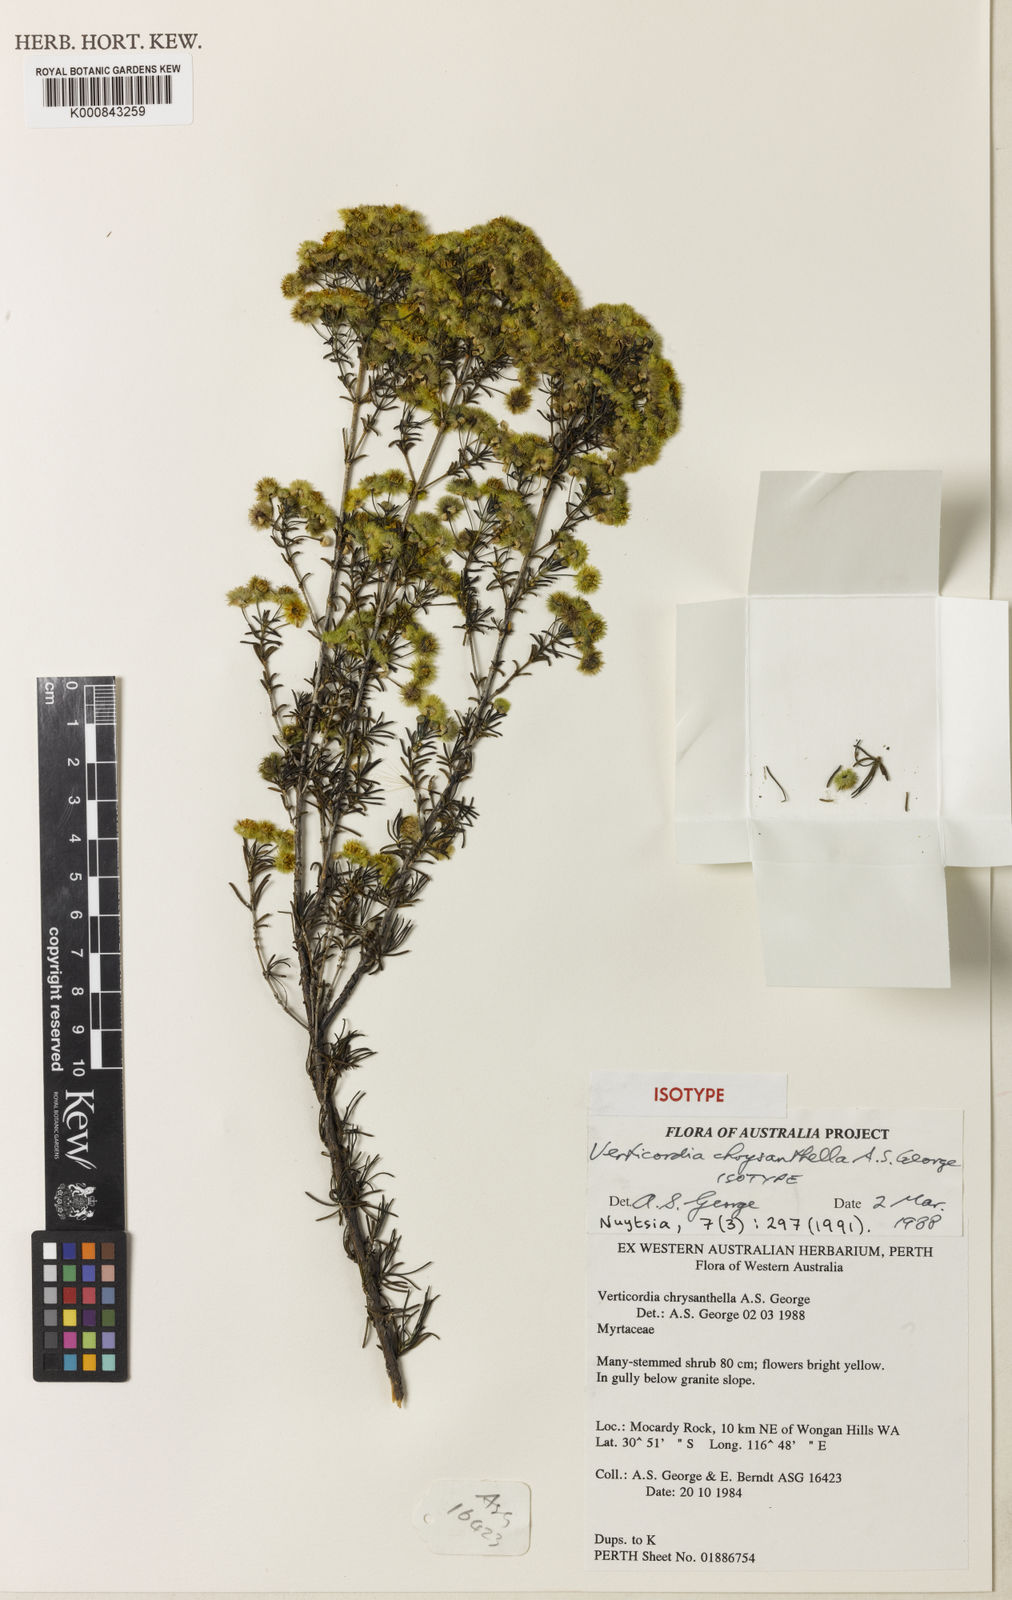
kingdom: Plantae
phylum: Tracheophyta
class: Magnoliopsida
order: Myrtales
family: Myrtaceae
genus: Verticordia
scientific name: Verticordia chrysanthella
